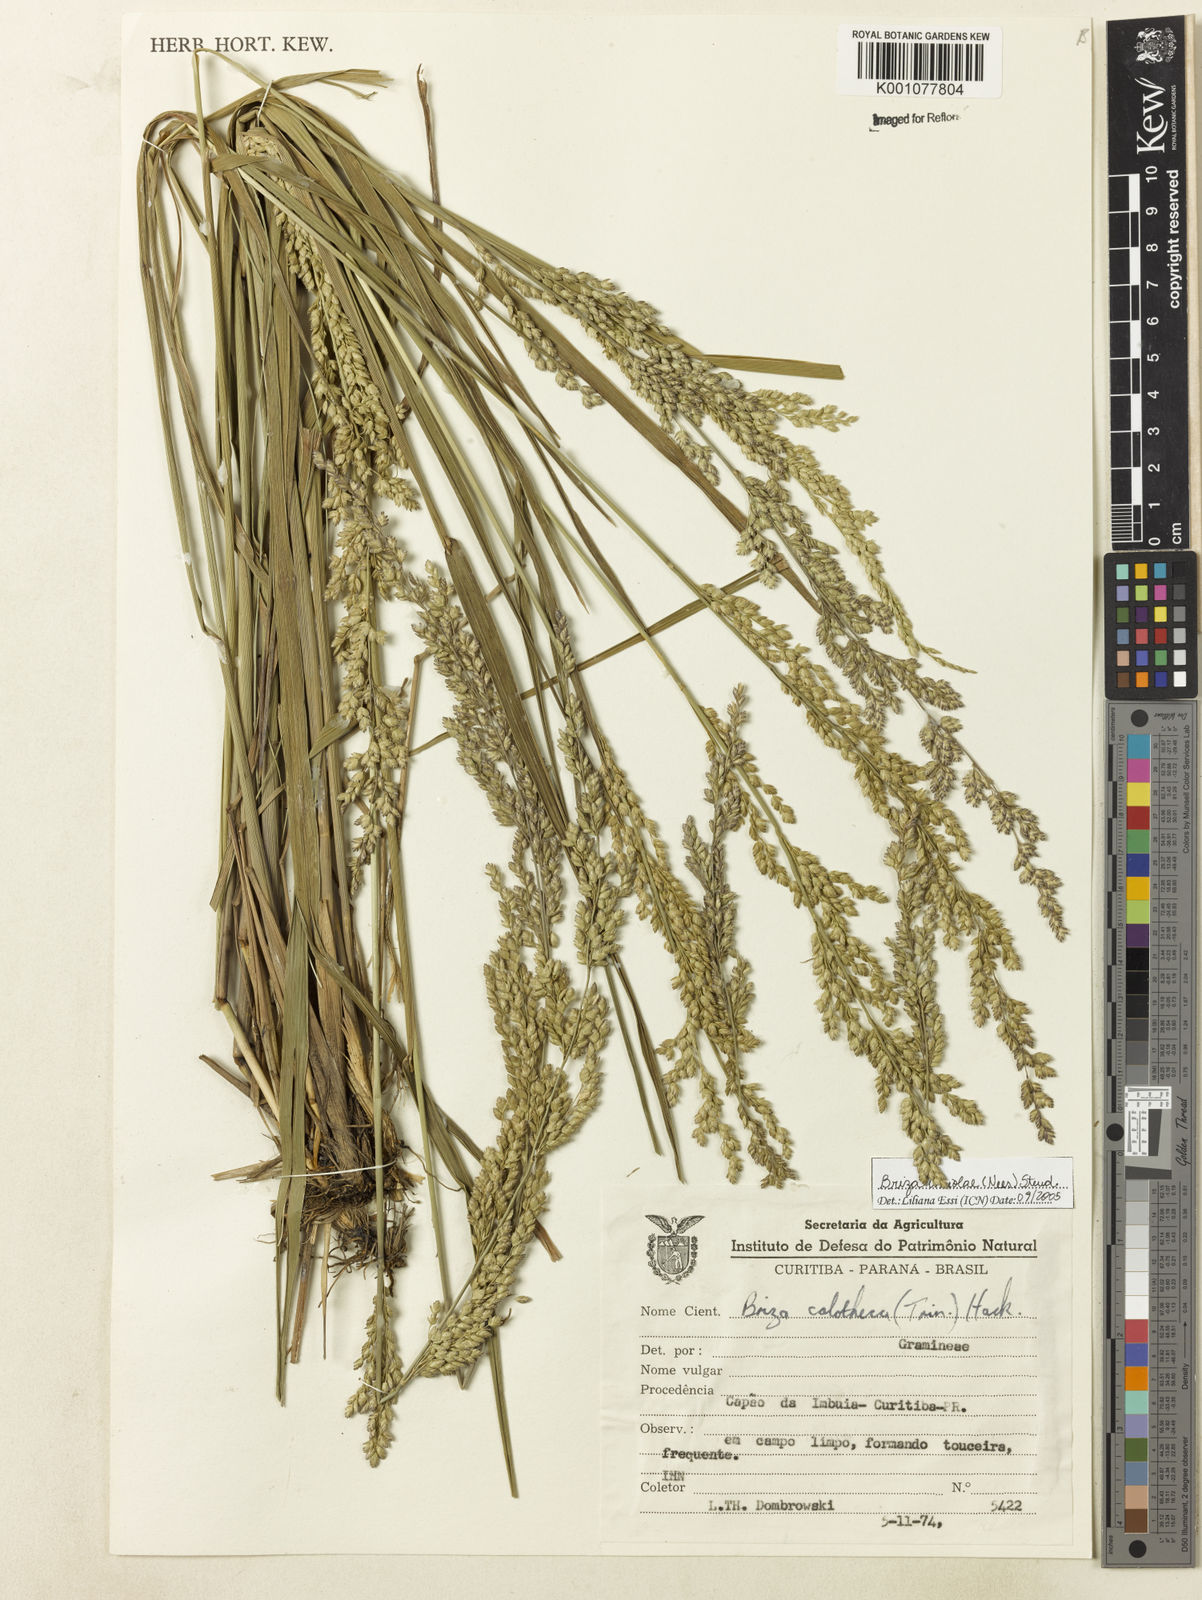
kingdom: Plantae
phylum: Tracheophyta
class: Liliopsida
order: Poales
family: Poaceae
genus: Poidium
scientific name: Poidium uniolae
